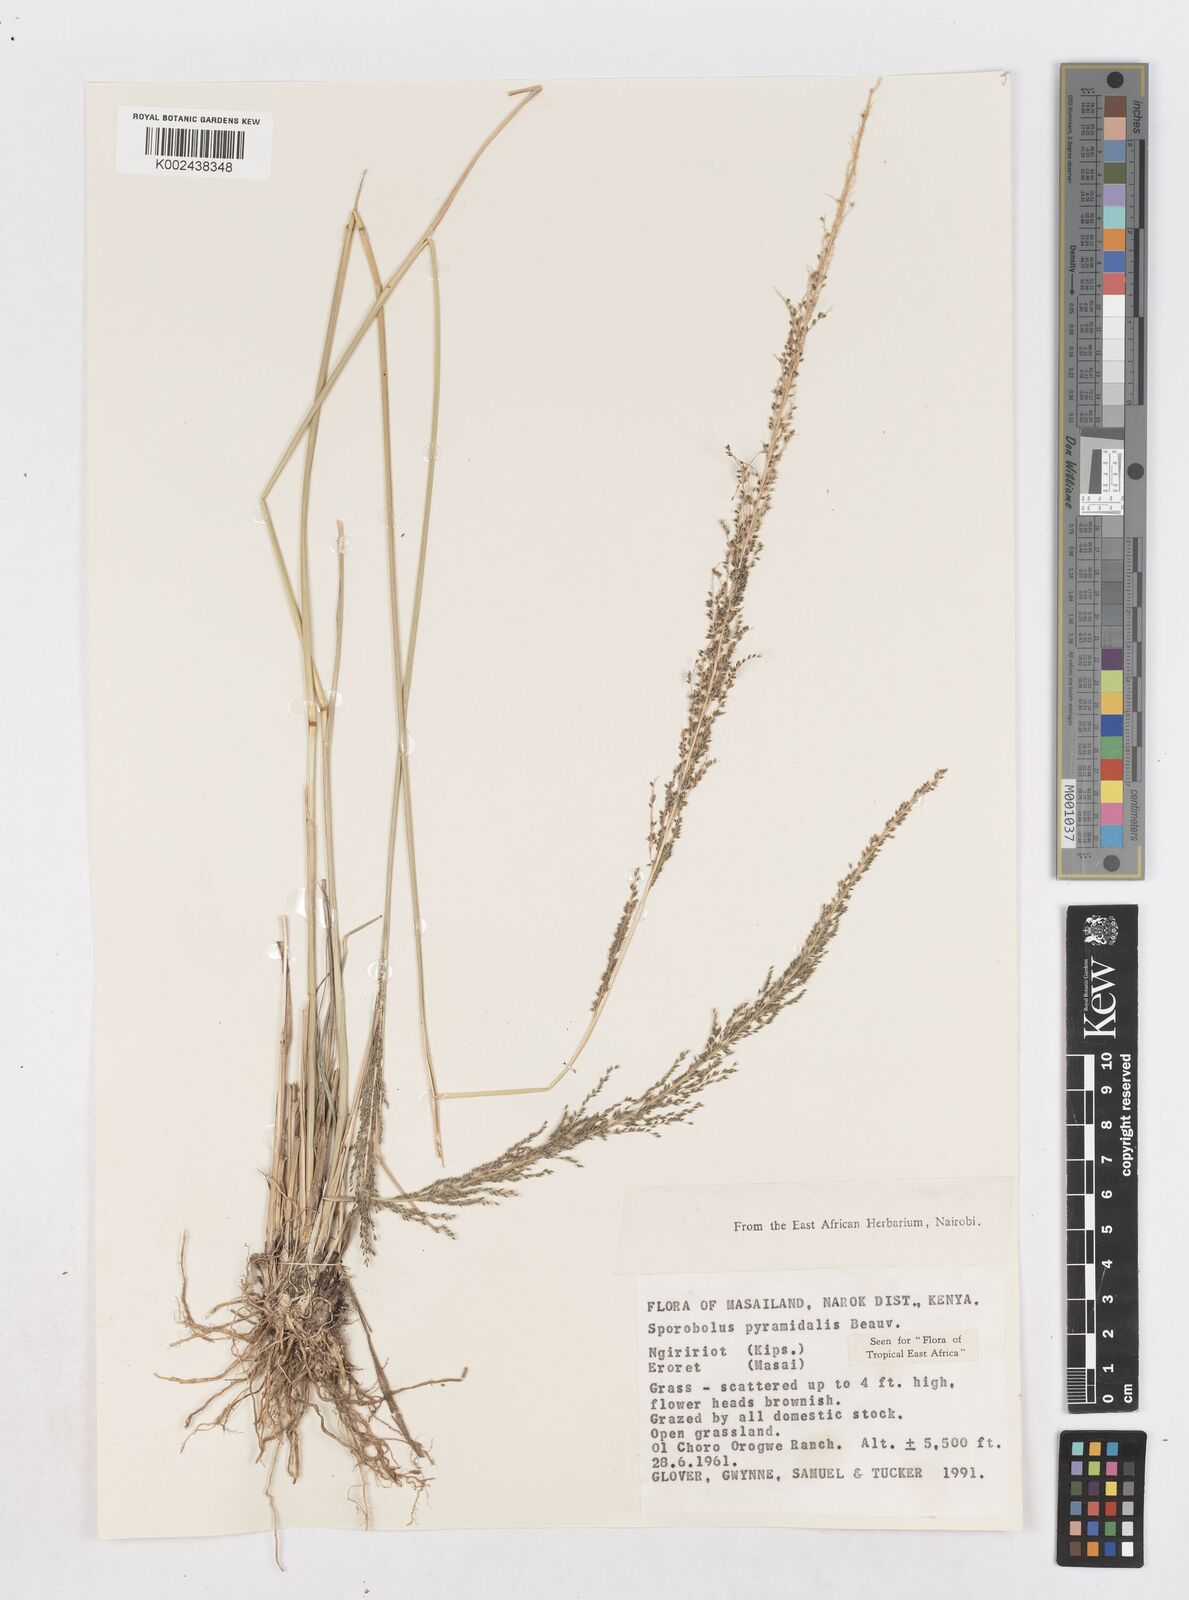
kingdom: Plantae
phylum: Tracheophyta
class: Liliopsida
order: Poales
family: Poaceae
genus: Sporobolus
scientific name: Sporobolus pyramidalis
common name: West indian dropseed
